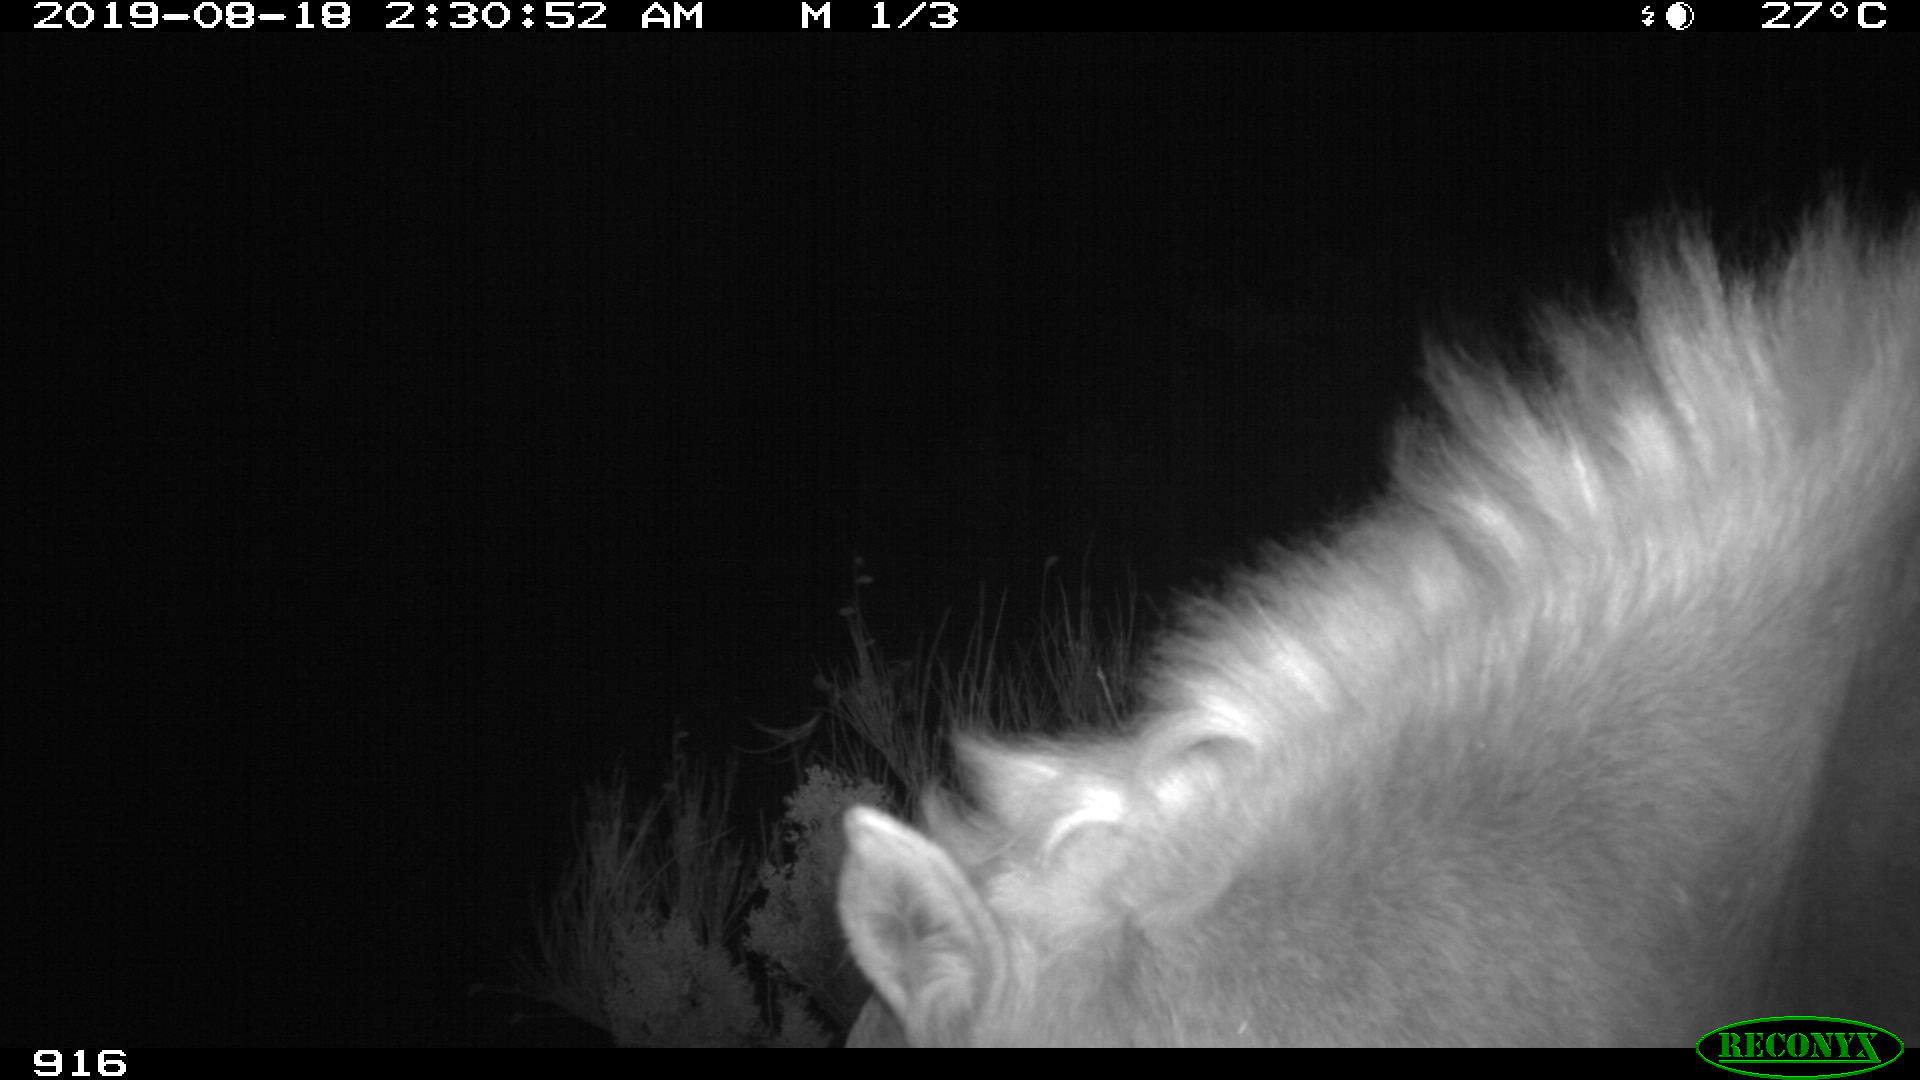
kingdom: Animalia
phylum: Chordata
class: Mammalia
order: Perissodactyla
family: Equidae
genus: Equus
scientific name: Equus caballus
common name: Horse
